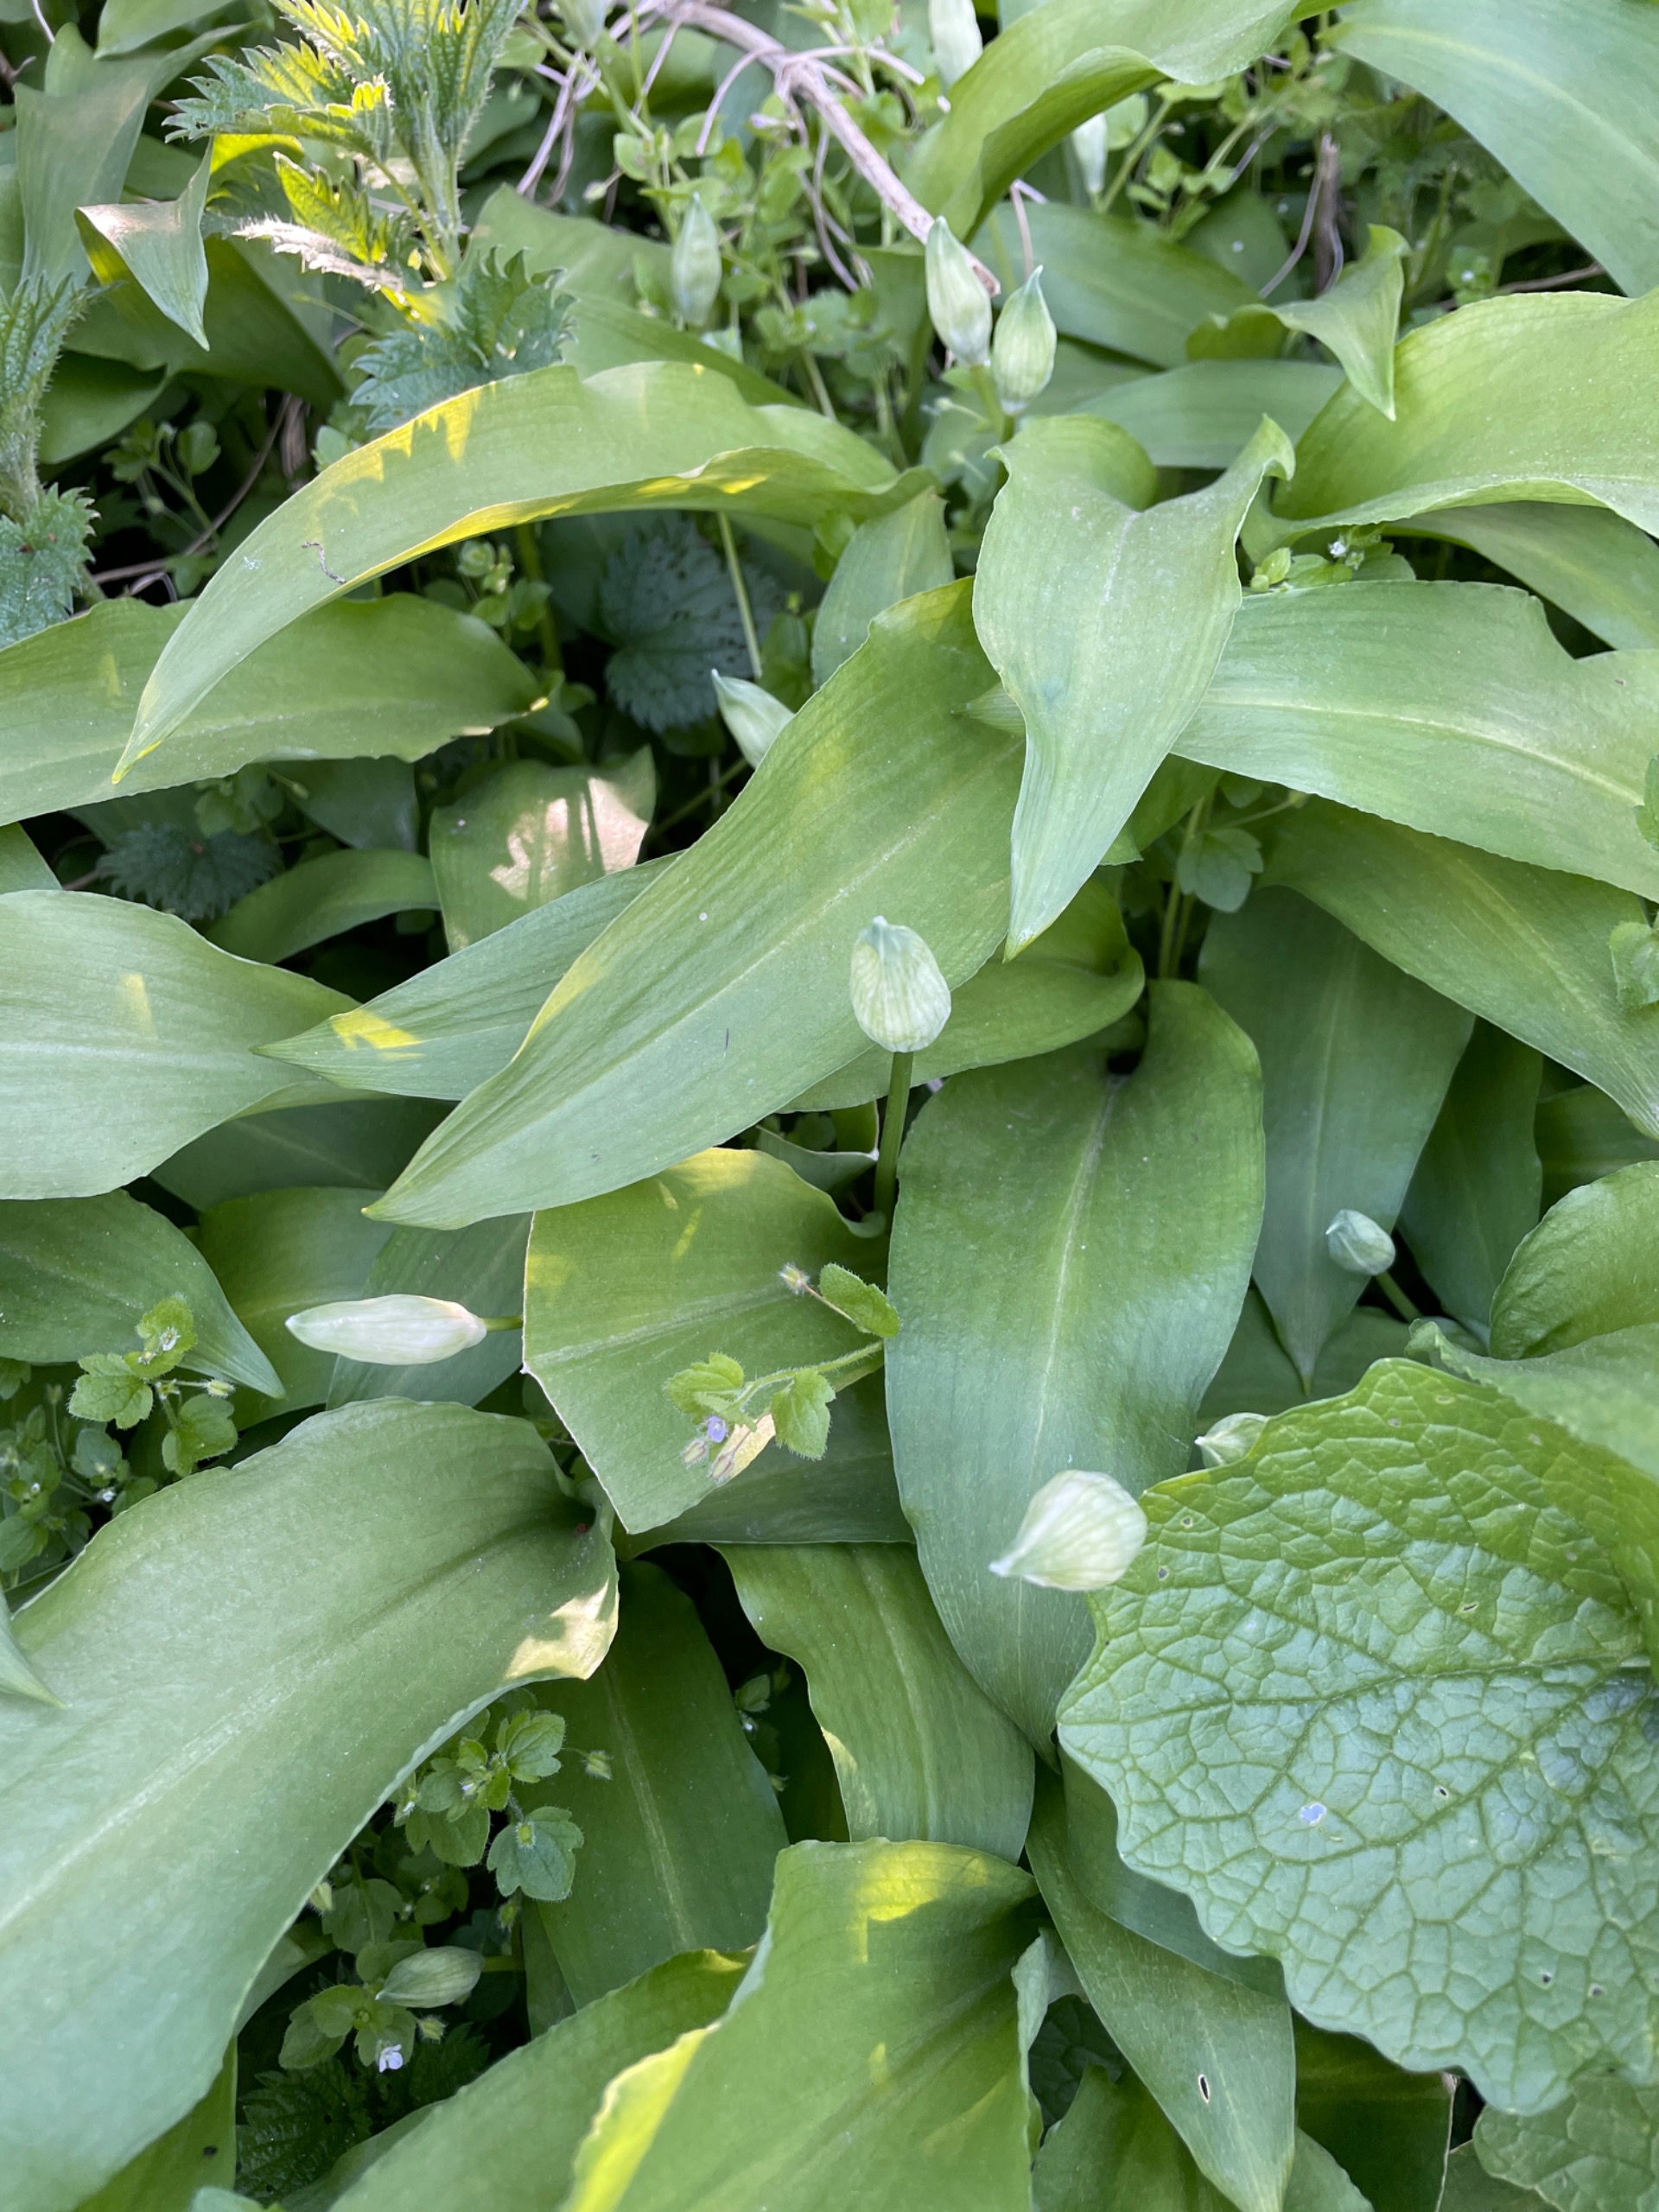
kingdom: Plantae
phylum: Tracheophyta
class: Liliopsida
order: Asparagales
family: Amaryllidaceae
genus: Allium
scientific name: Allium ursinum
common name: Rams-løg
